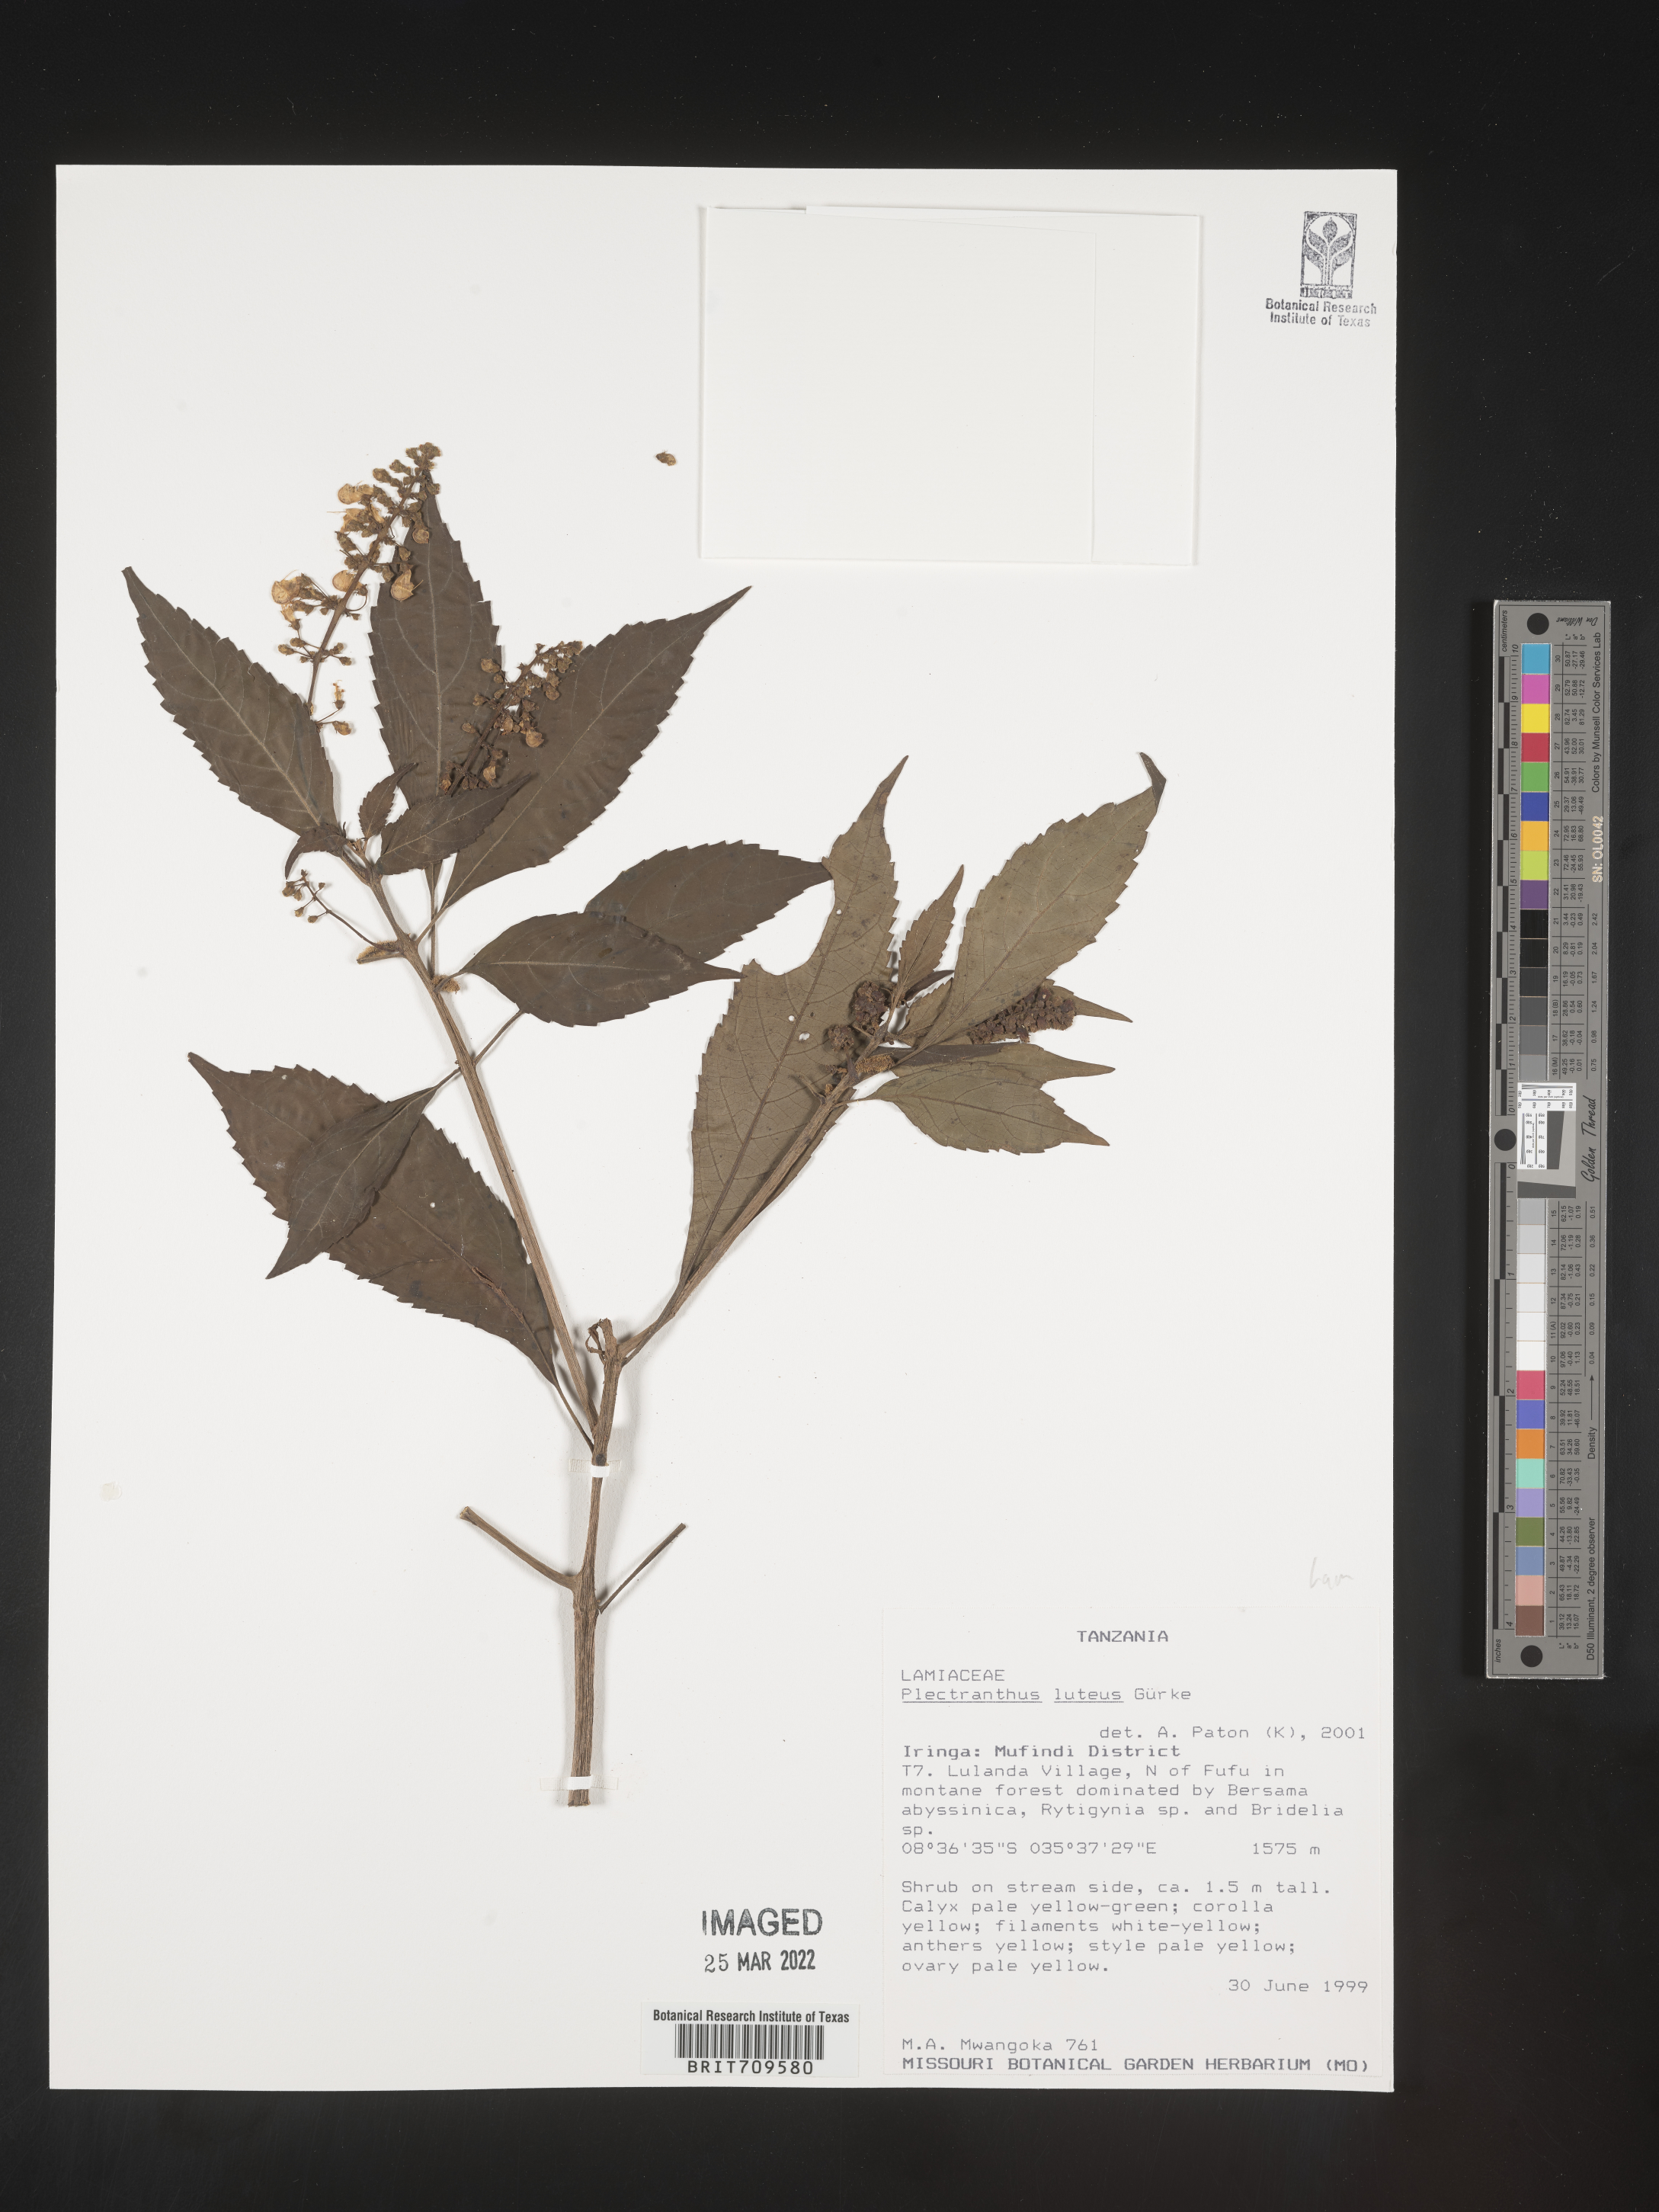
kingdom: Plantae
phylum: Tracheophyta
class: Magnoliopsida
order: Lamiales
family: Lamiaceae
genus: Plectranthus
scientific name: Plectranthus
